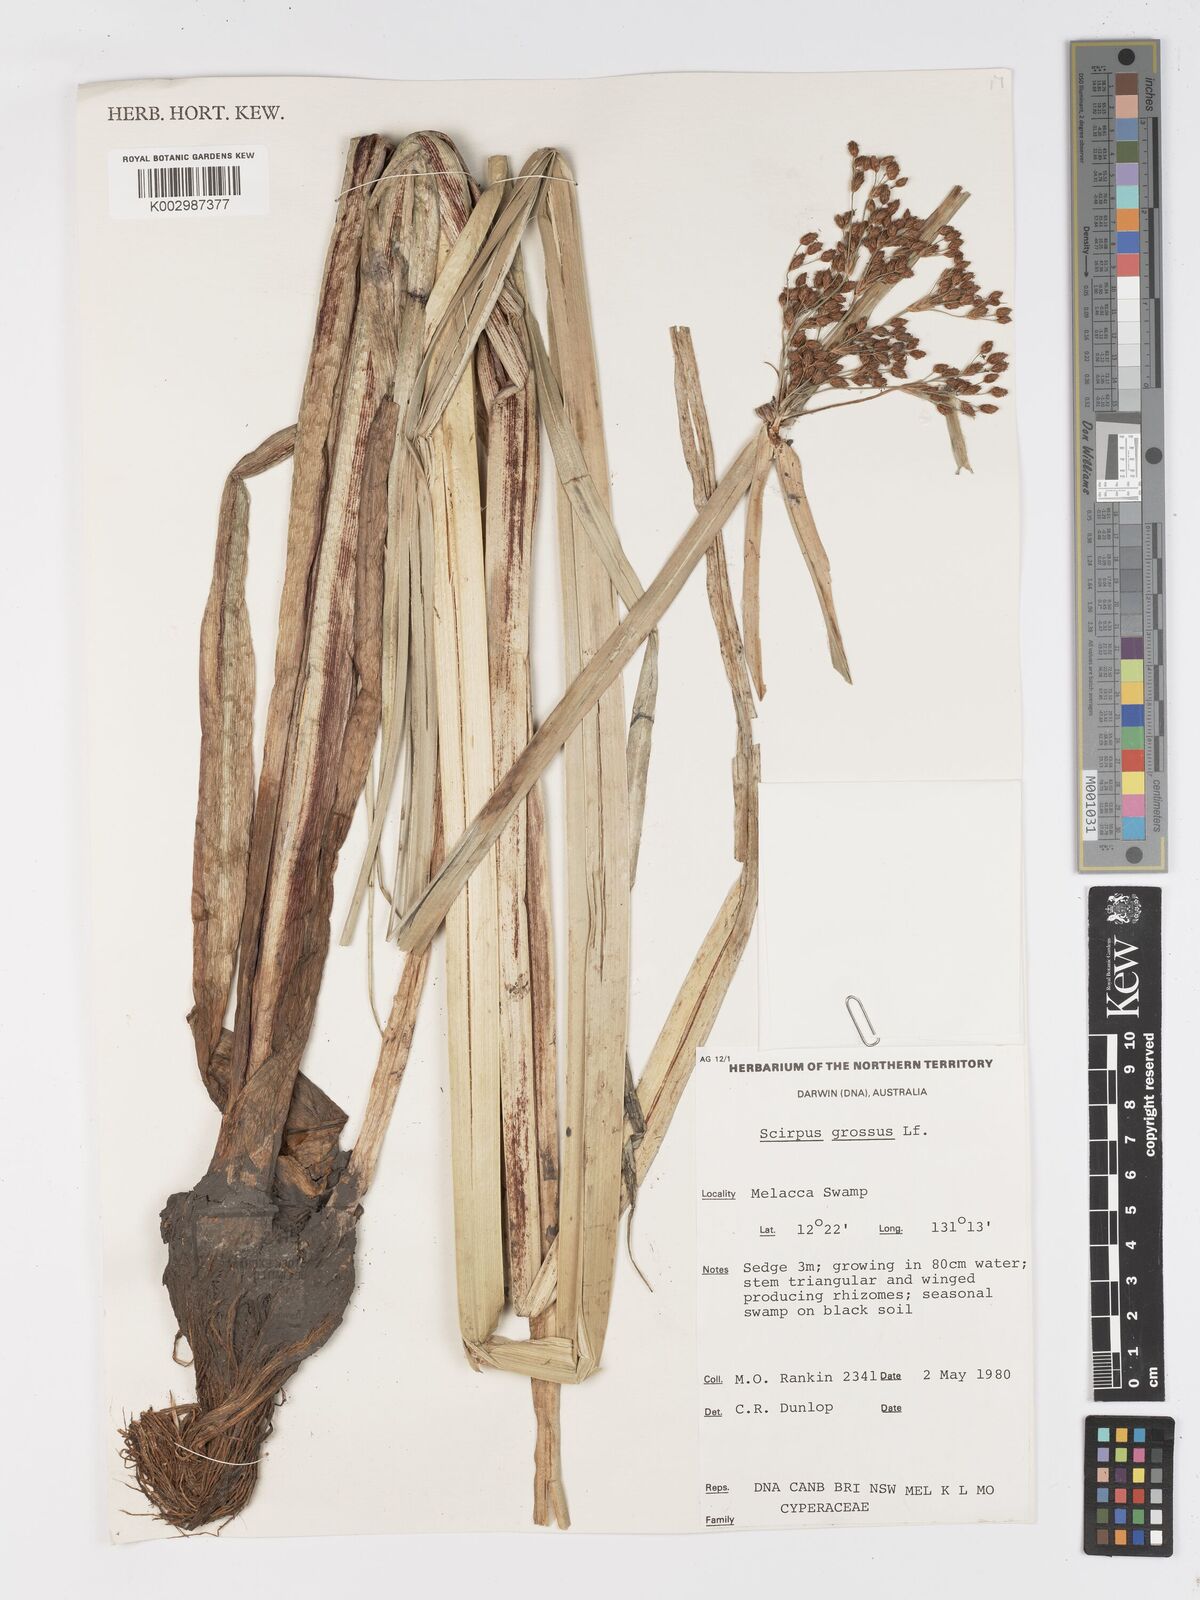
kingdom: Plantae
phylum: Tracheophyta
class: Liliopsida
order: Poales
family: Cyperaceae
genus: Actinoscirpus
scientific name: Actinoscirpus grossus
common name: Giant bur rush
